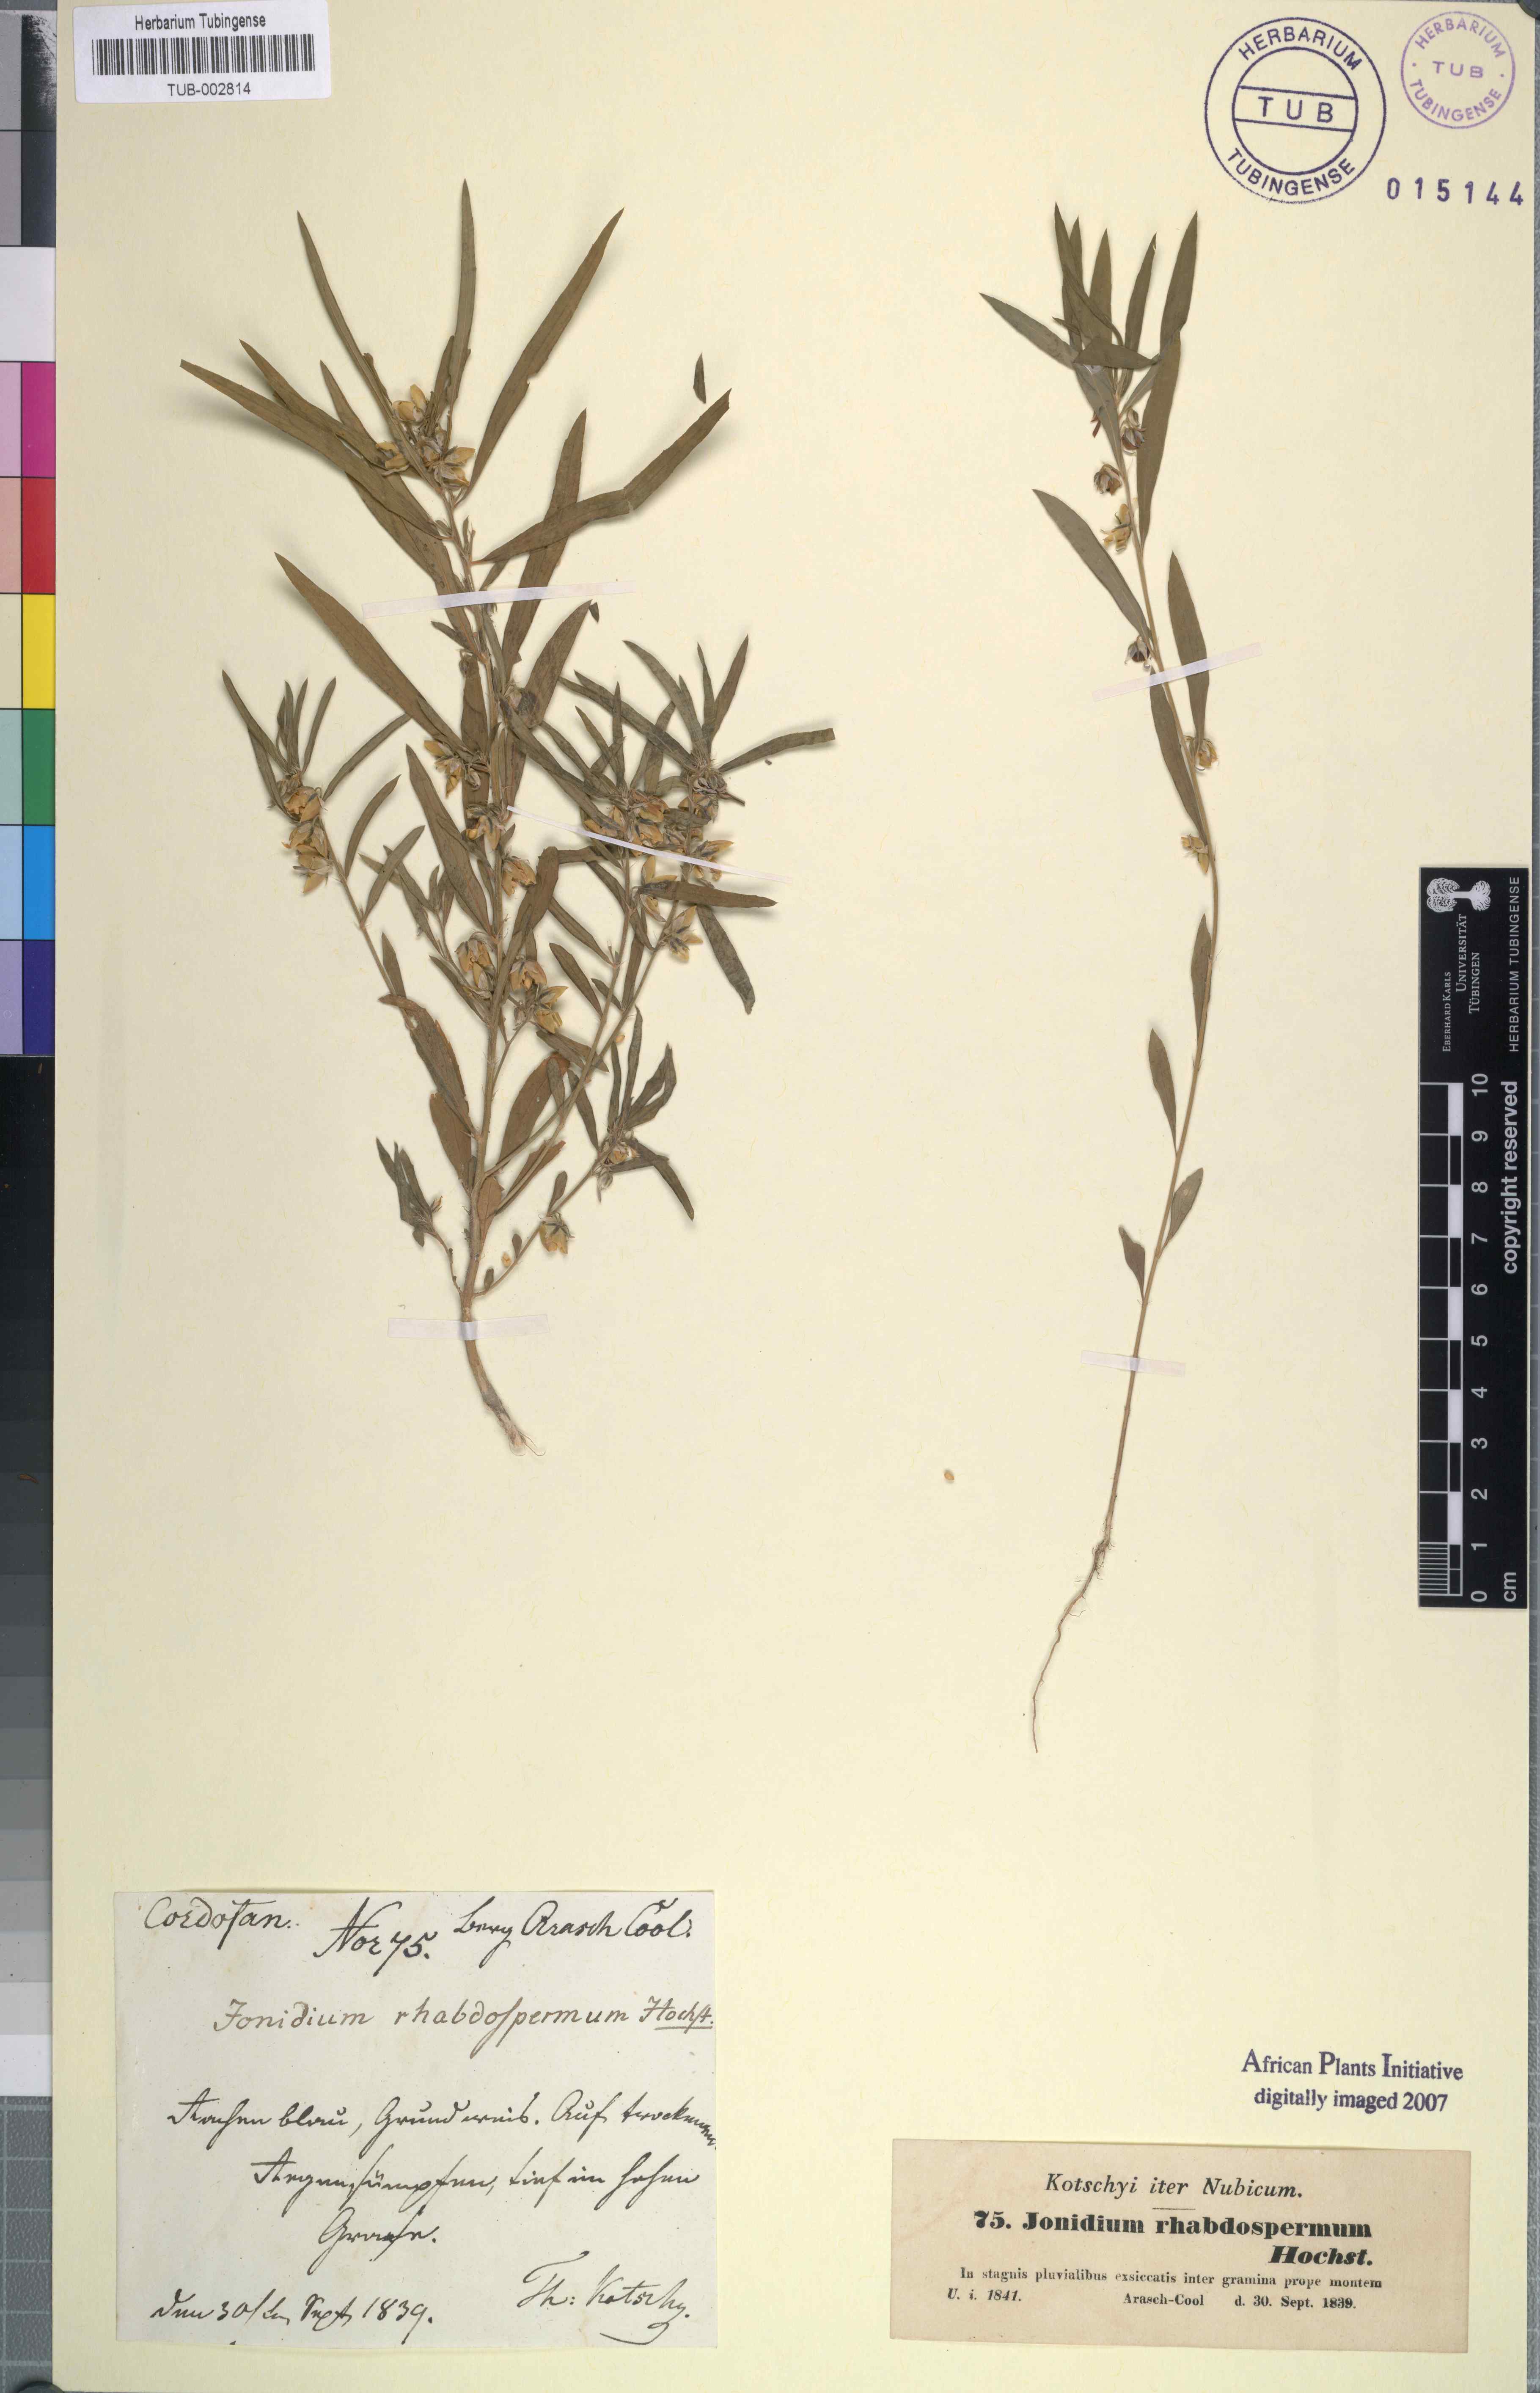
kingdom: Plantae
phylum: Tracheophyta
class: Magnoliopsida
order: Malpighiales
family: Violaceae
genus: Pigea
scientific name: Pigea enneasperma
